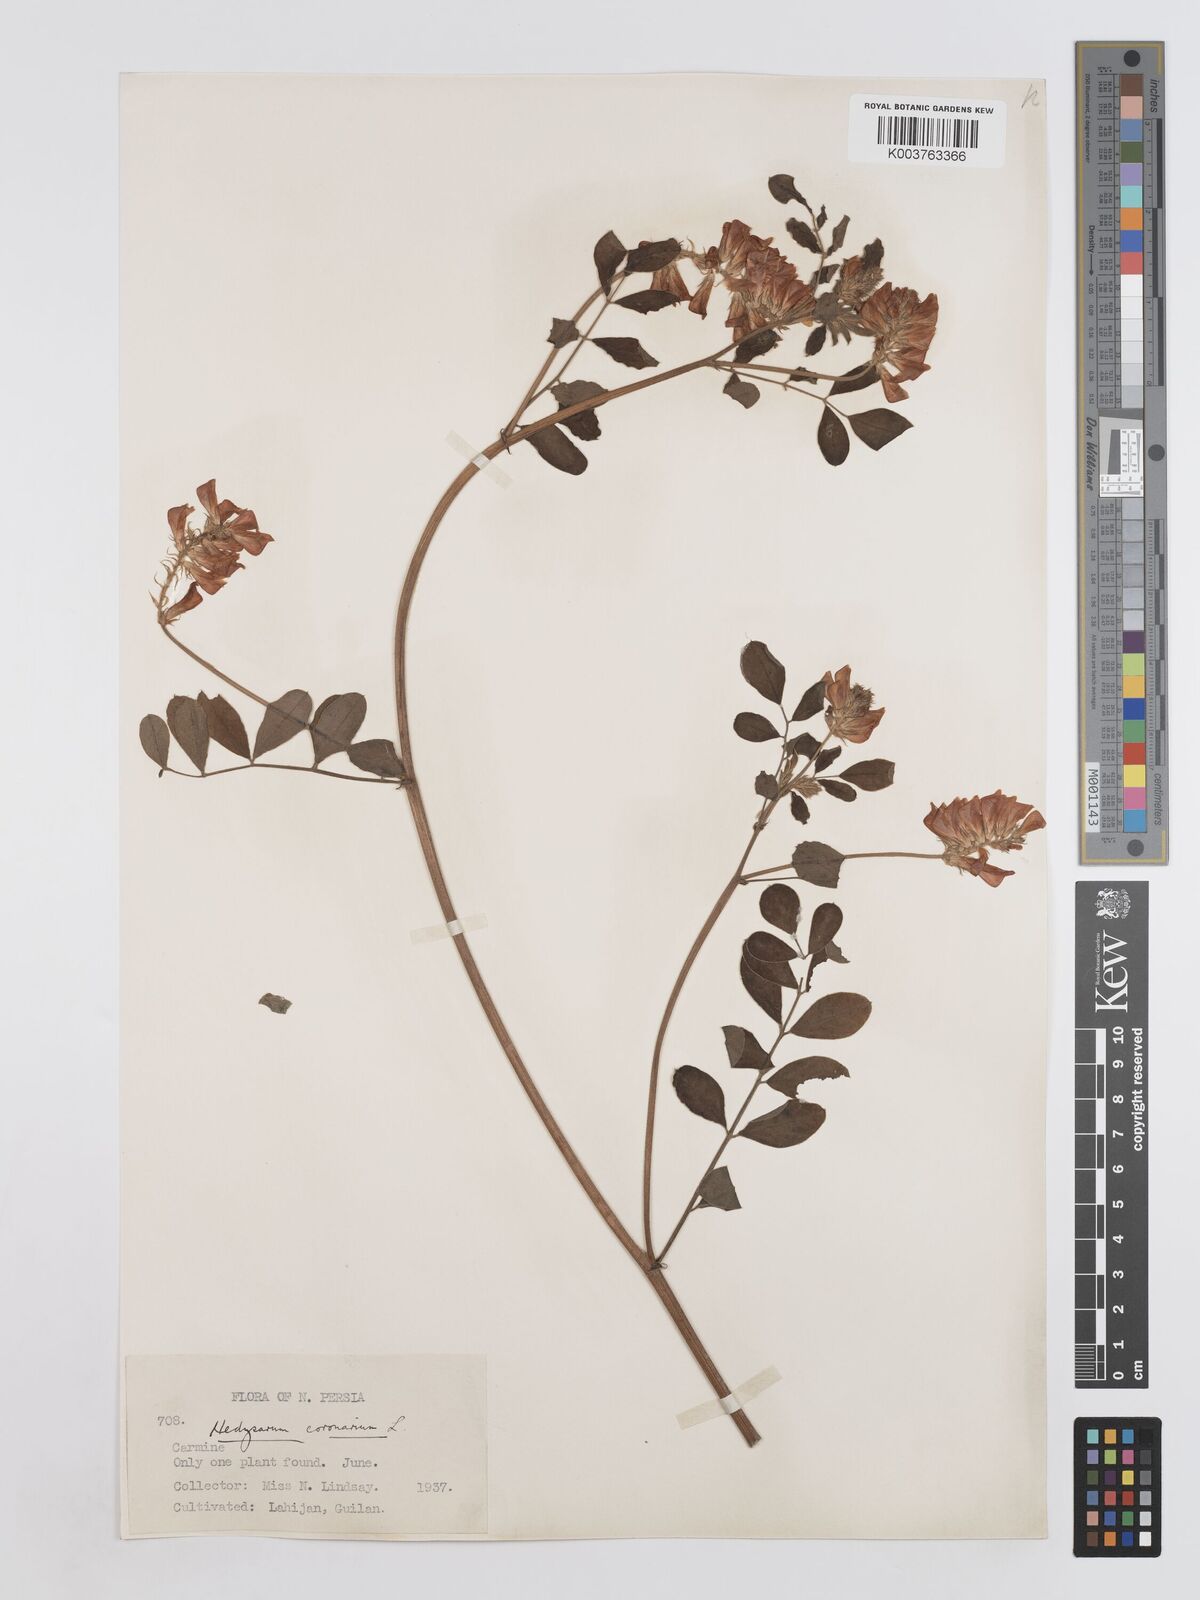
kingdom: Plantae
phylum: Tracheophyta
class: Magnoliopsida
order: Fabales
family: Fabaceae
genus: Sulla
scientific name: Sulla coronaria
